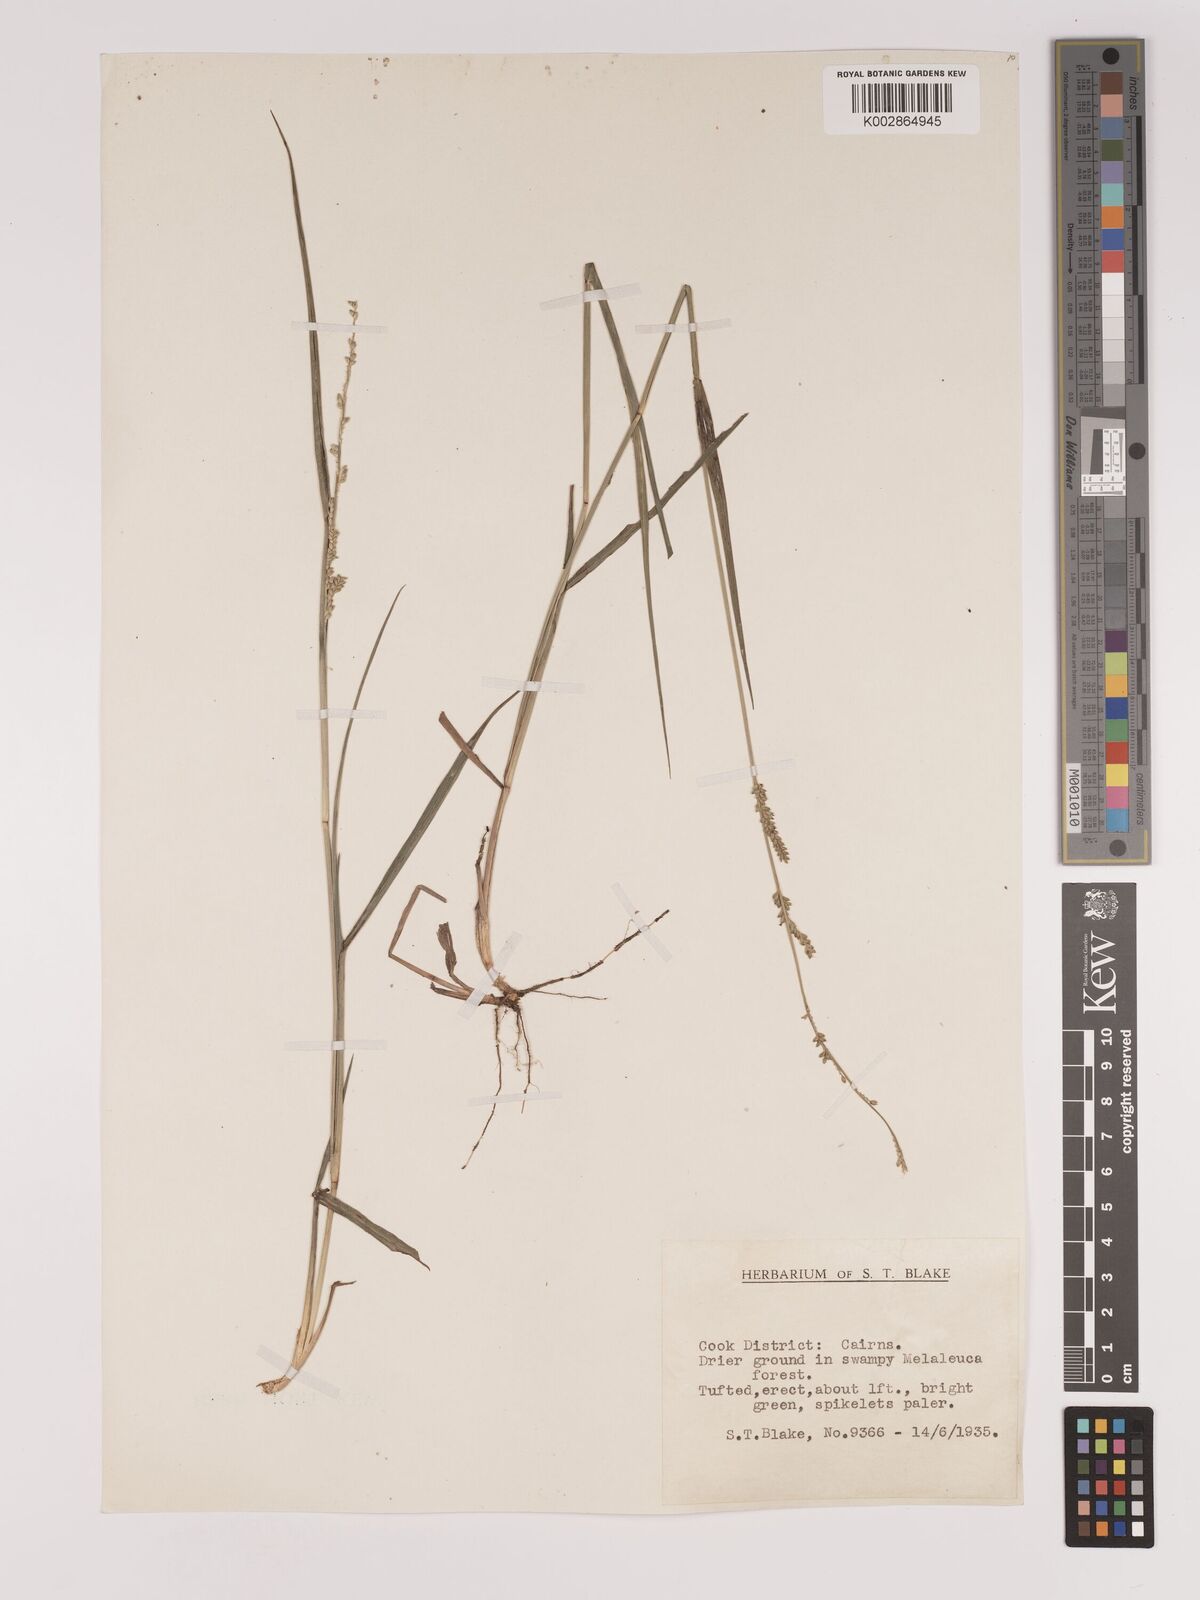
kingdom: Plantae
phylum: Tracheophyta
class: Liliopsida
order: Poales
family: Poaceae
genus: Setaria
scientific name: Setaria
